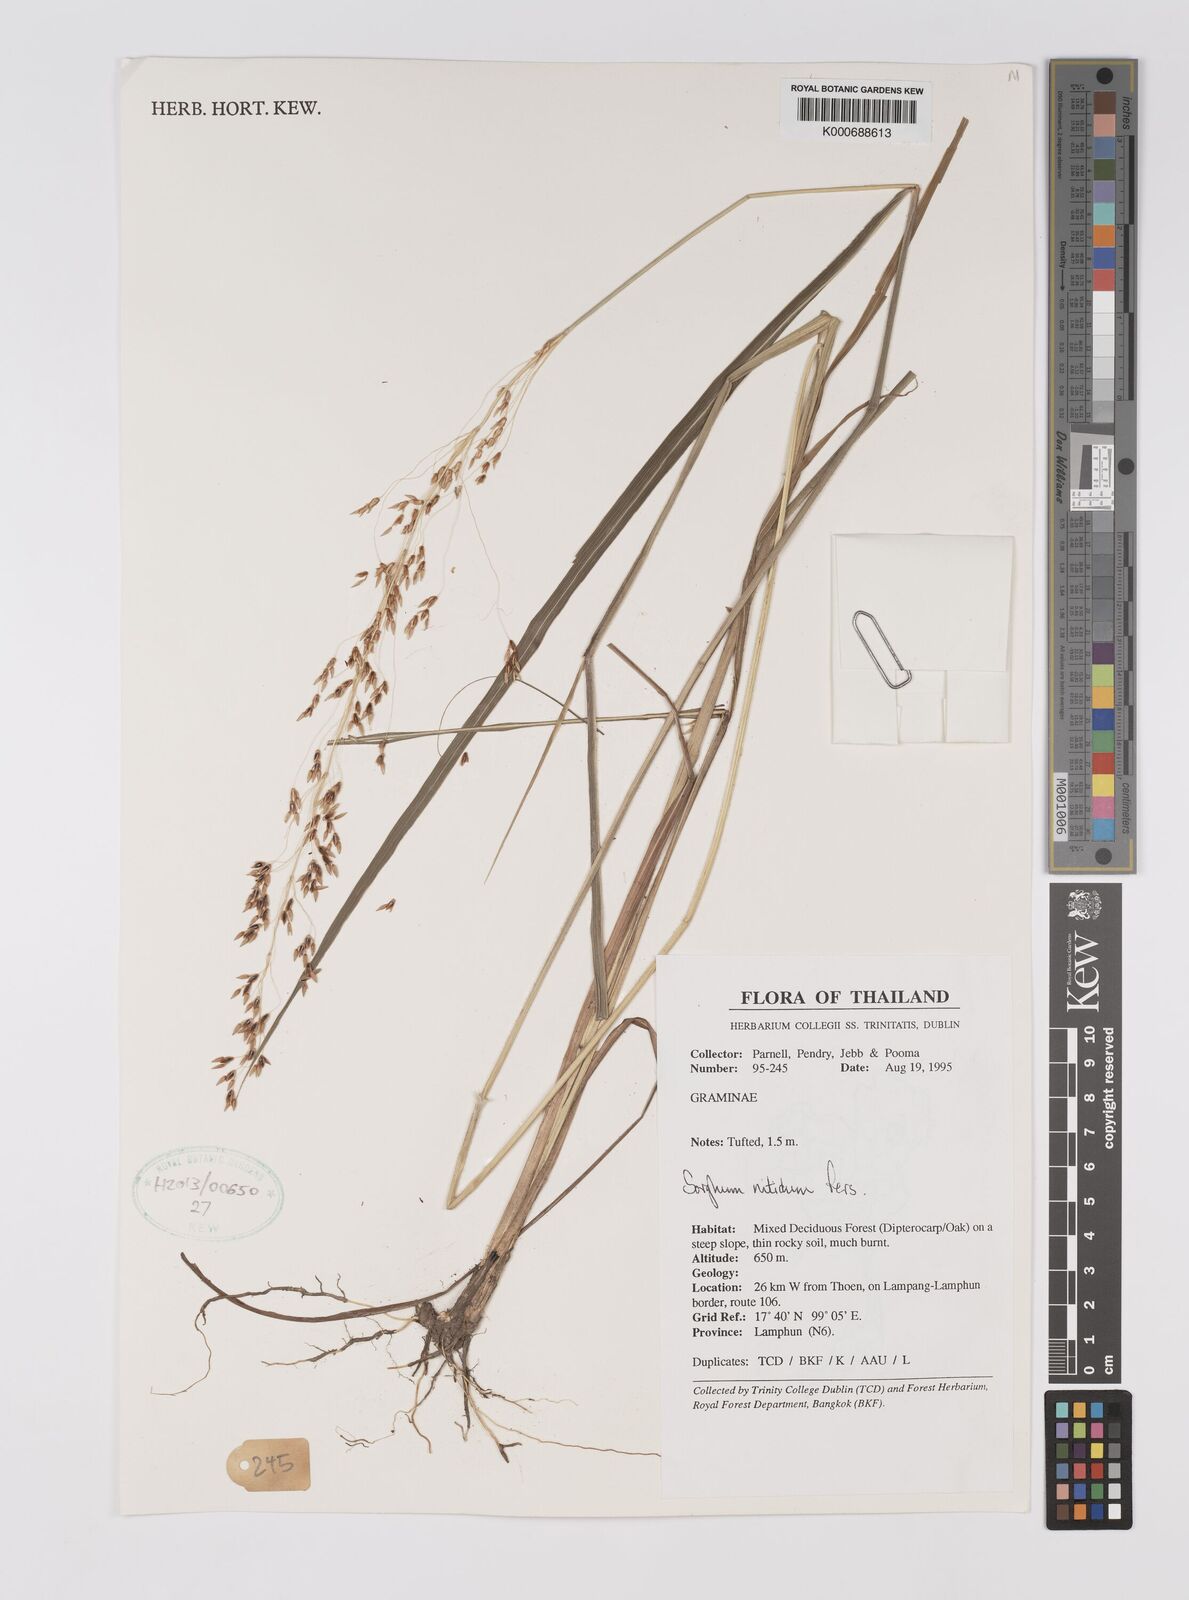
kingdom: Plantae
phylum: Tracheophyta
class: Liliopsida
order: Poales
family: Poaceae
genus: Sorghum
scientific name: Sorghum nitidum
